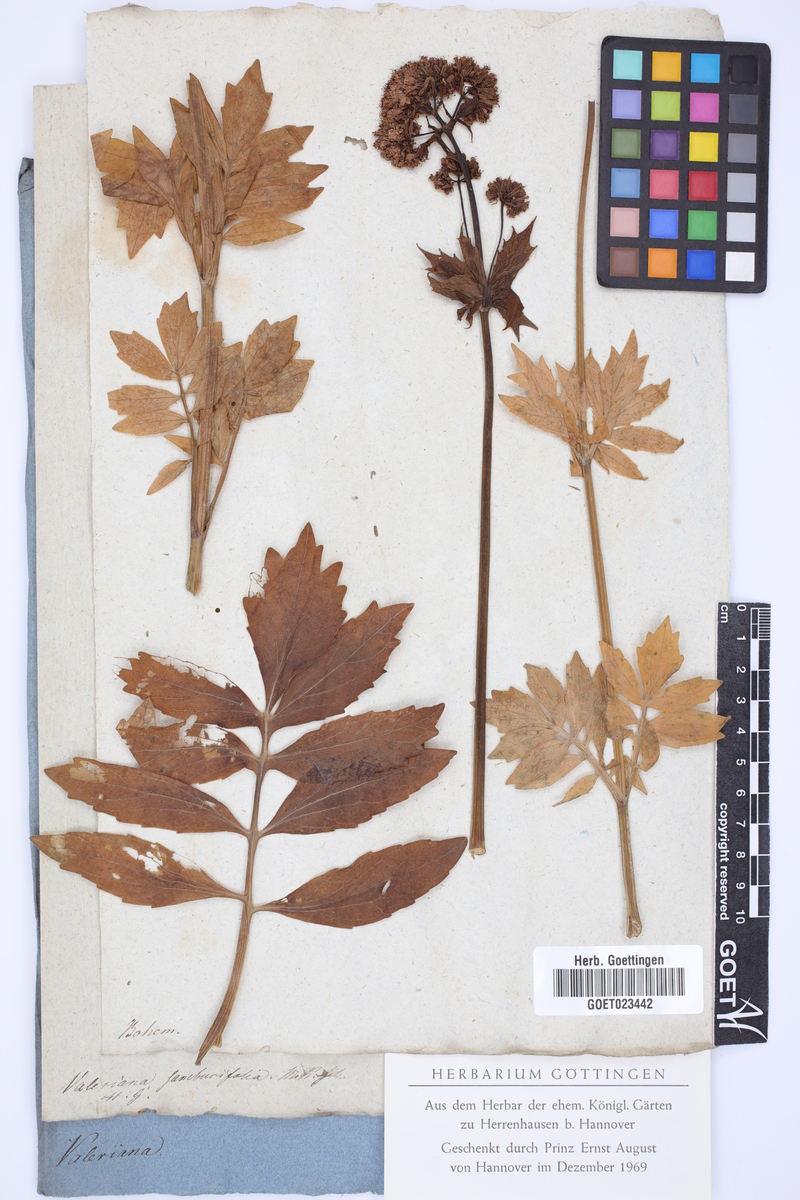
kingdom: Plantae
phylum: Tracheophyta
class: Magnoliopsida
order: Dipsacales
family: Caprifoliaceae
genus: Valeriana
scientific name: Valeriana excelsa
